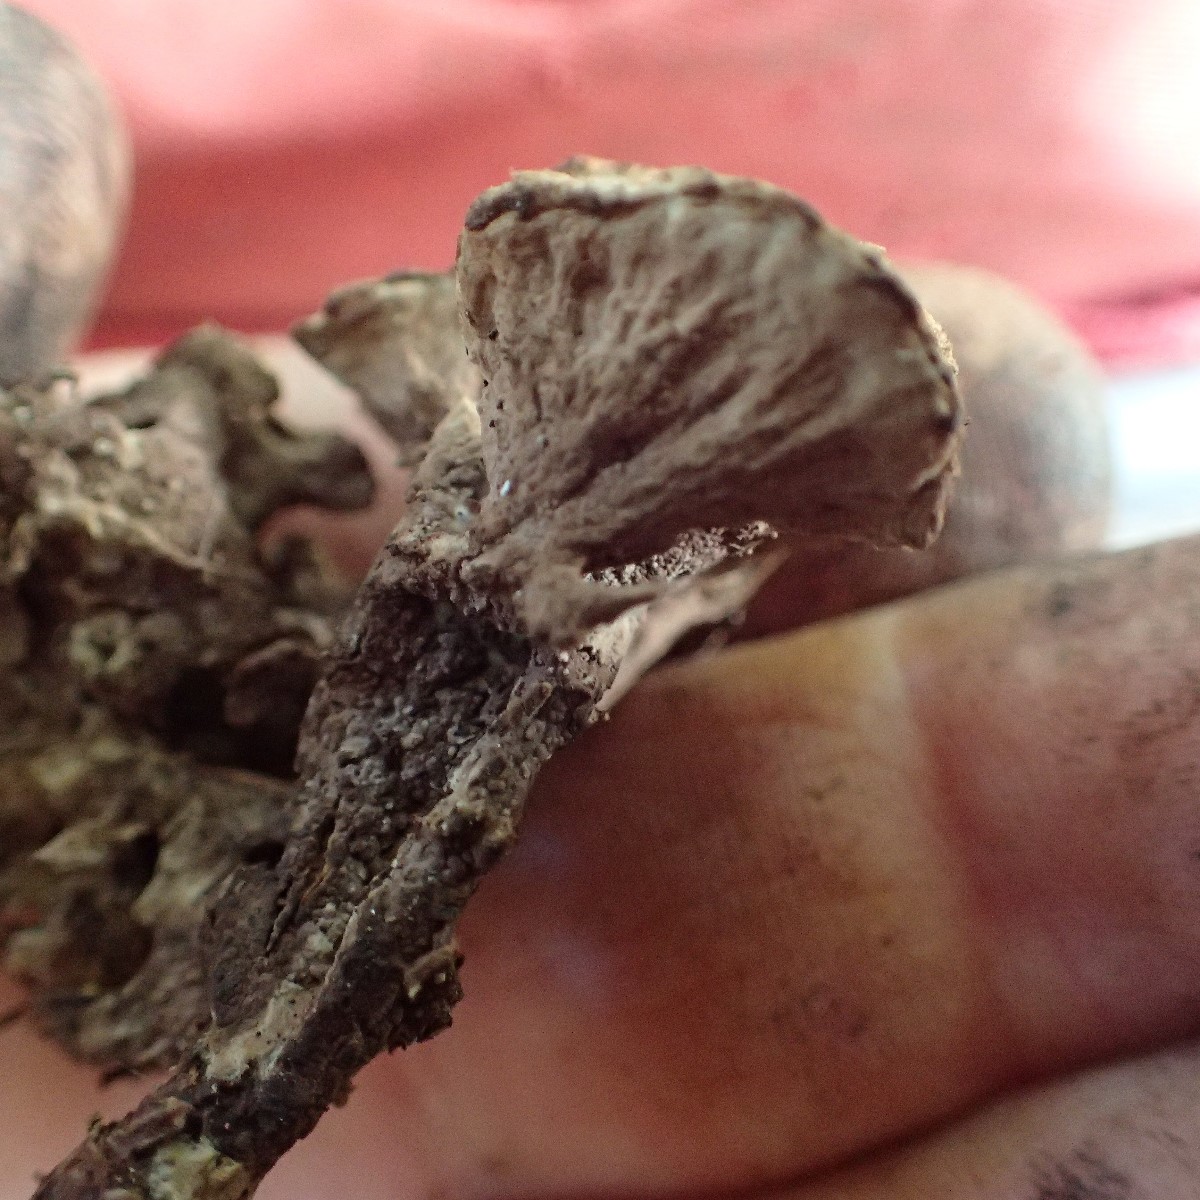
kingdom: Fungi
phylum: Basidiomycota
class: Agaricomycetes
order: Thelephorales
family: Thelephoraceae
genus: Thelephora
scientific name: Thelephora terrestris
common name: fliget frynsesvamp
